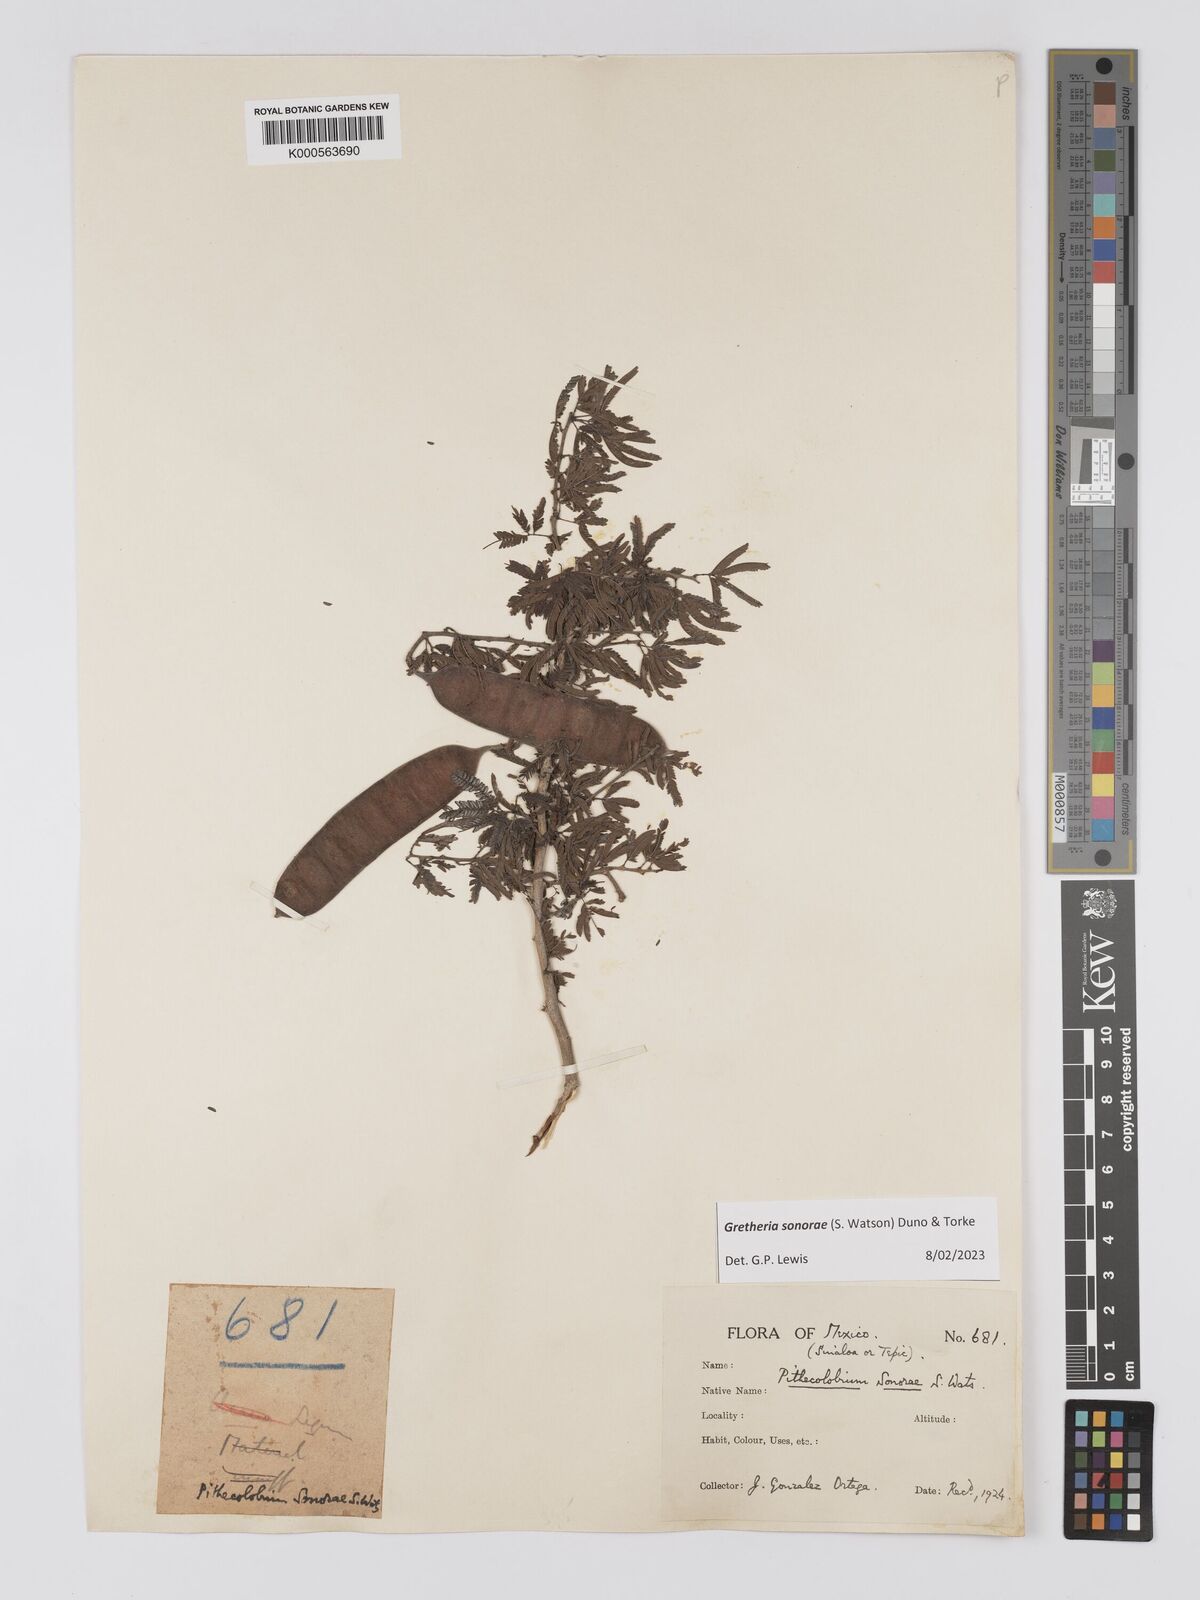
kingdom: Plantae
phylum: Tracheophyta
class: Magnoliopsida
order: Fabales
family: Fabaceae
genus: Havardia
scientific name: Havardia sonorae
